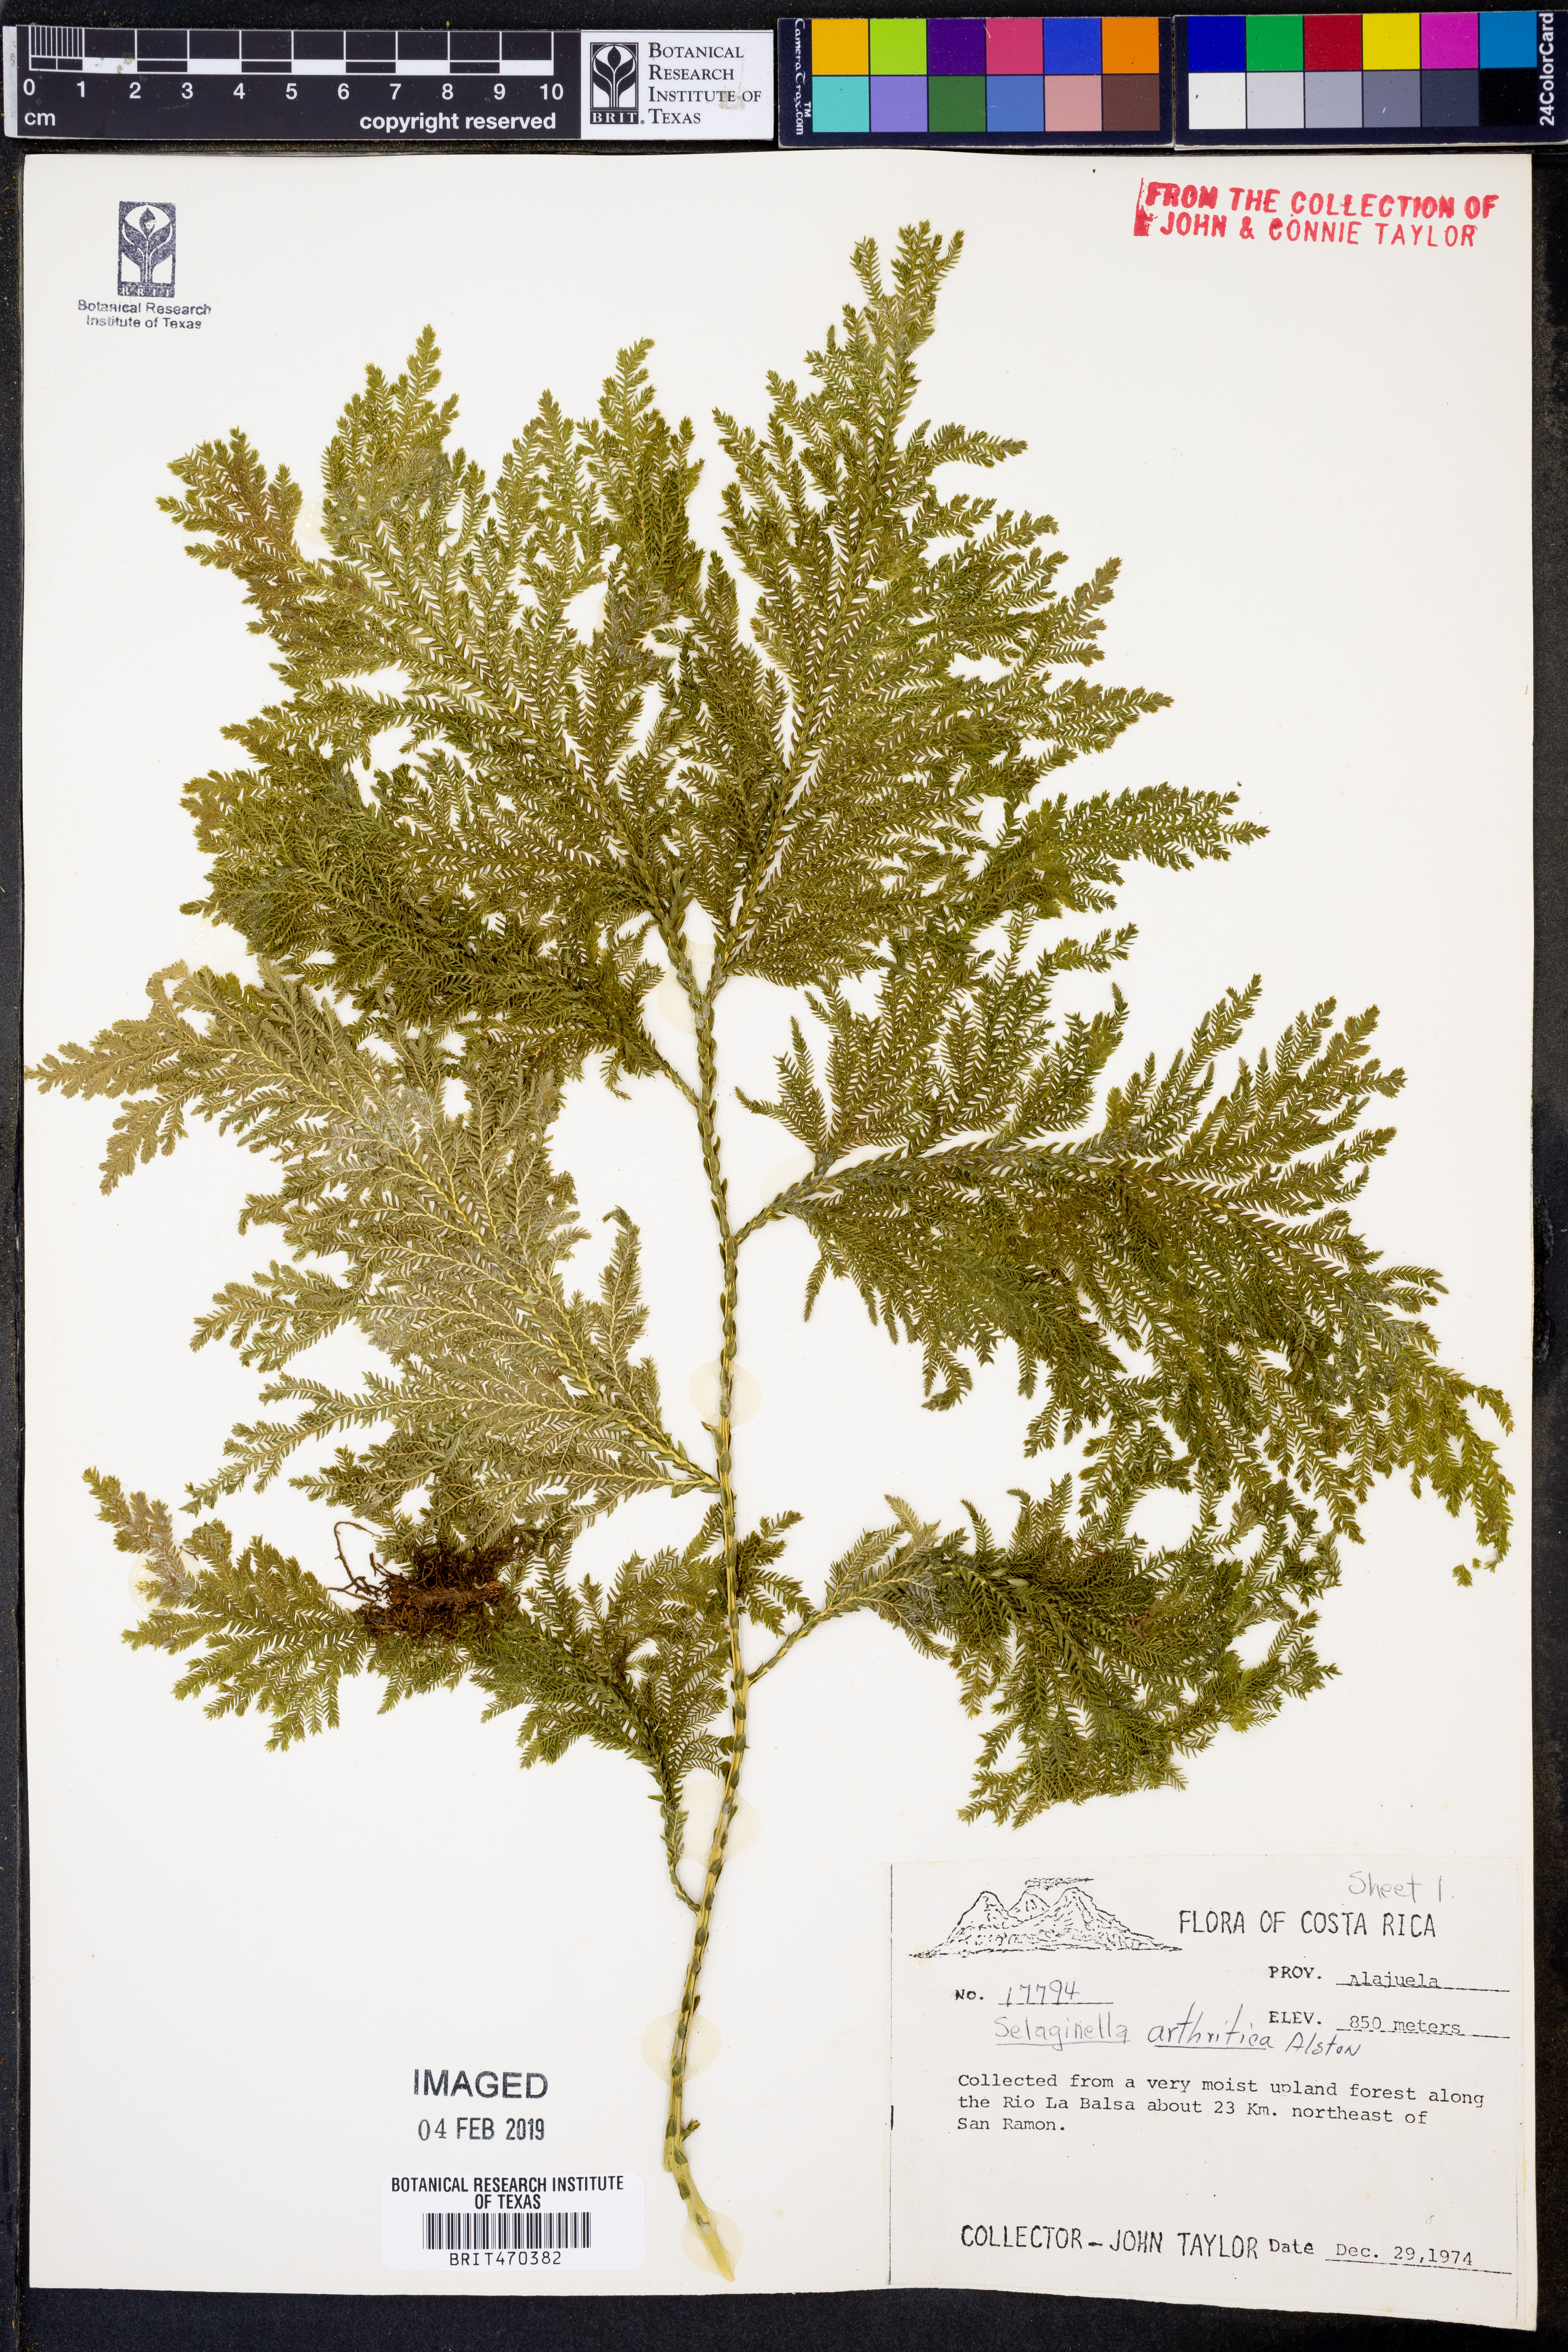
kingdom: Plantae
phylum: Tracheophyta
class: Lycopodiopsida
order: Selaginellales
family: Selaginellaceae
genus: Selaginella
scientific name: Selaginella arthritica
